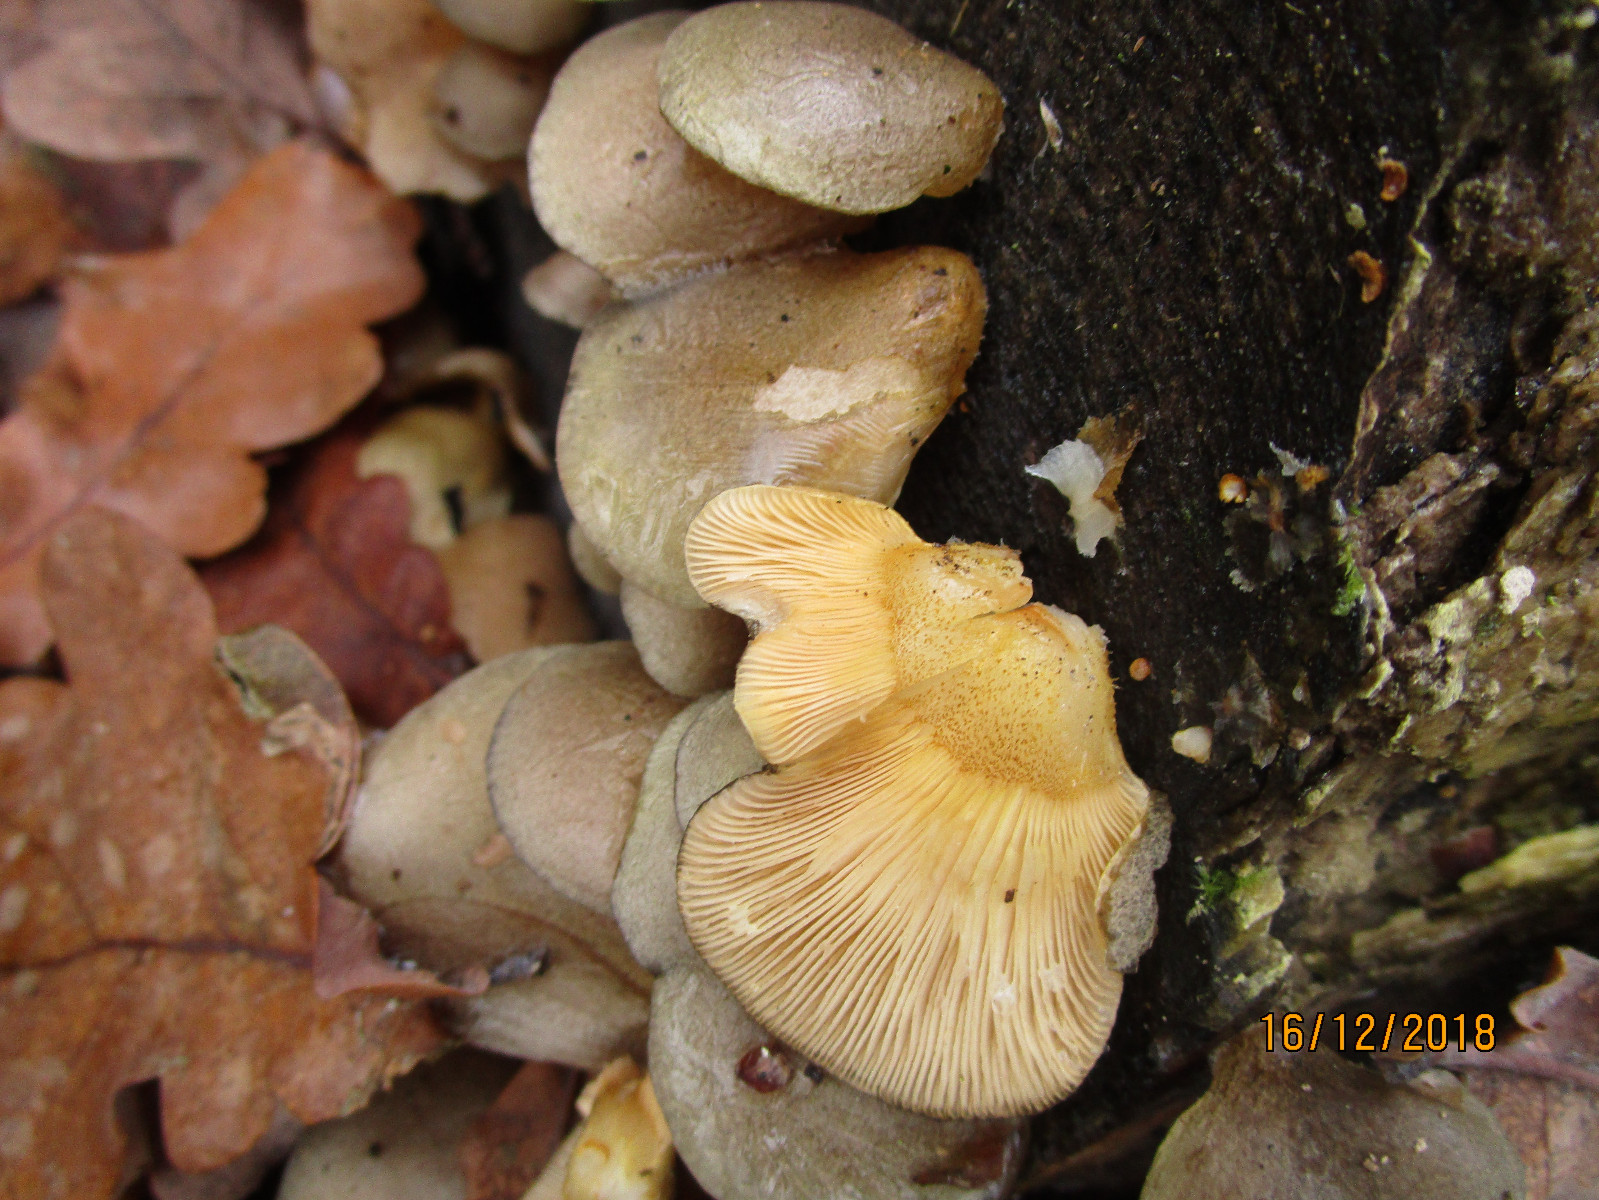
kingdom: Fungi
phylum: Basidiomycota
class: Agaricomycetes
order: Agaricales
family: Sarcomyxaceae
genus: Sarcomyxa
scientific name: Sarcomyxa serotina
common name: gummihat
